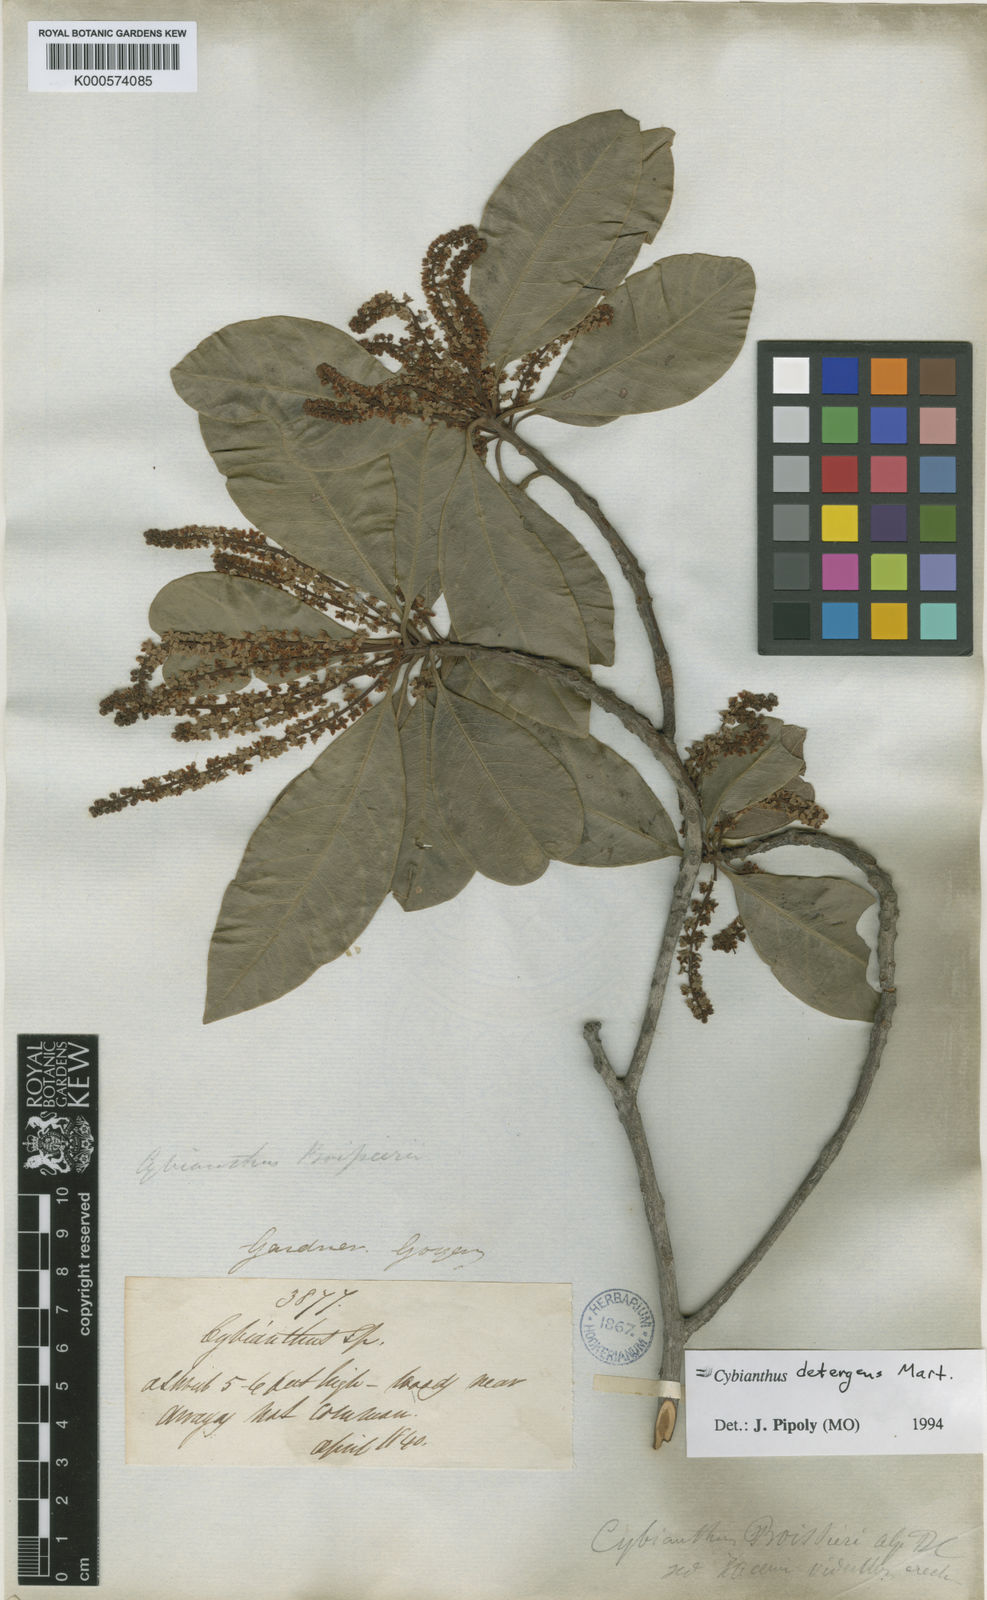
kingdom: Plantae
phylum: Tracheophyta
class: Magnoliopsida
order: Ericales
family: Primulaceae
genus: Cybianthus
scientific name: Cybianthus detergens
